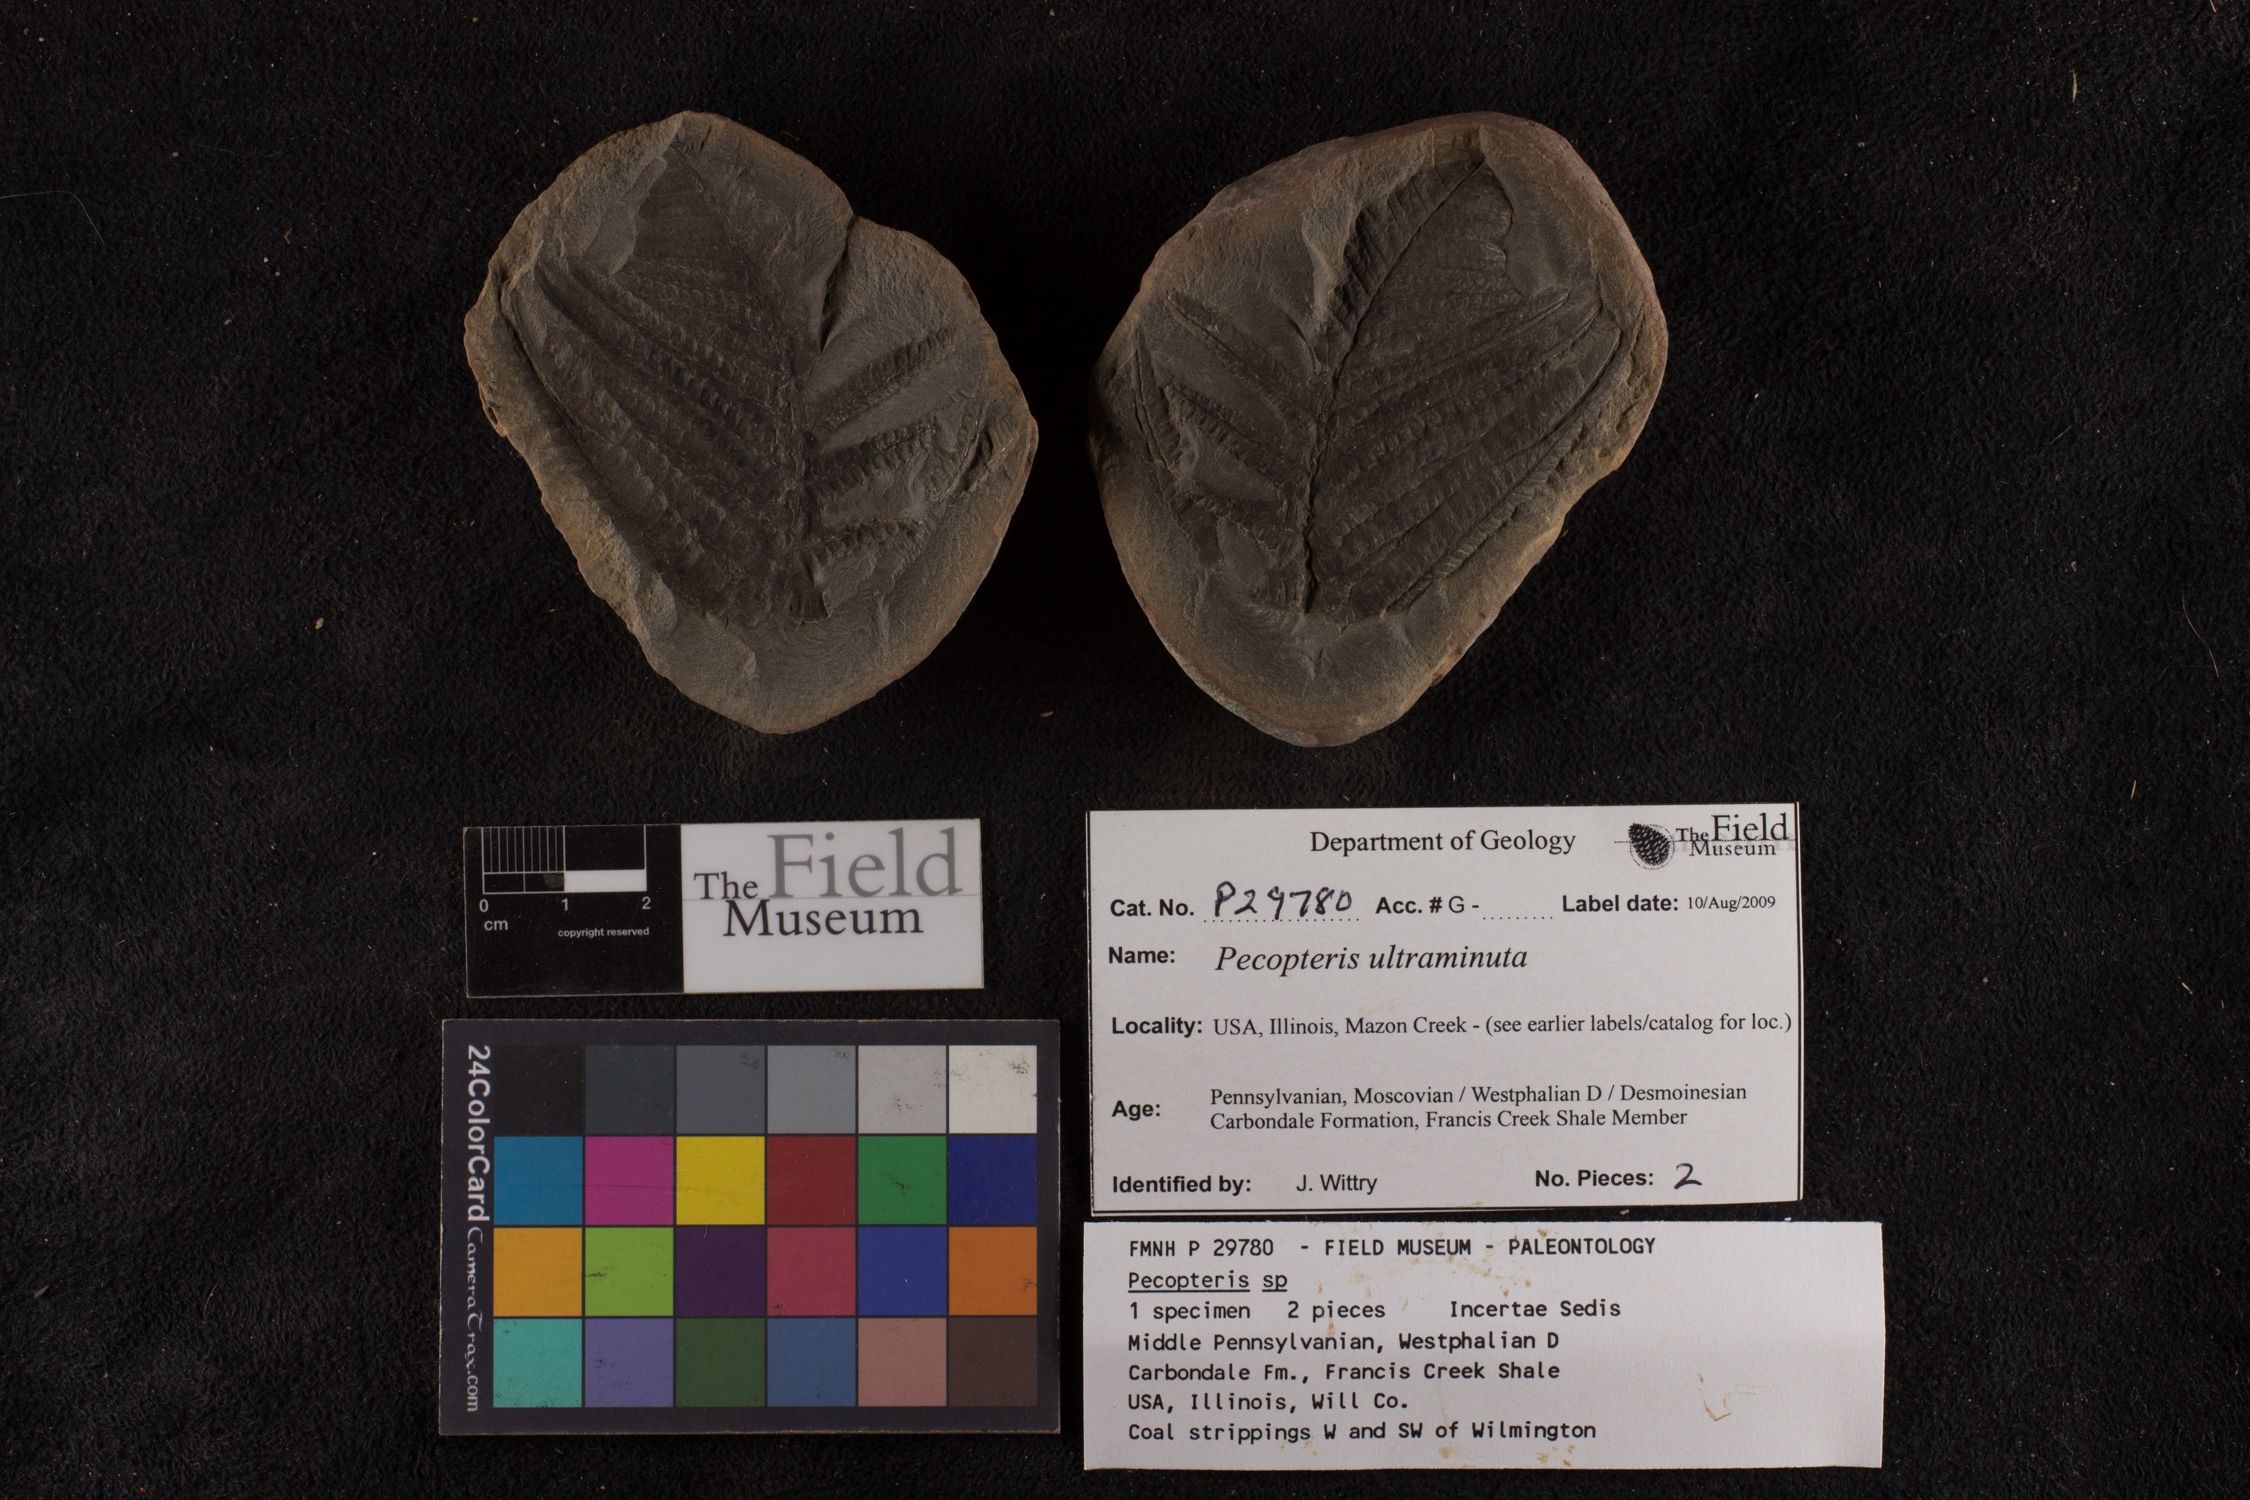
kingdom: Plantae
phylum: Tracheophyta
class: Polypodiopsida
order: Marattiales
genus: Cyathocarpus
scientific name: Cyathocarpus
